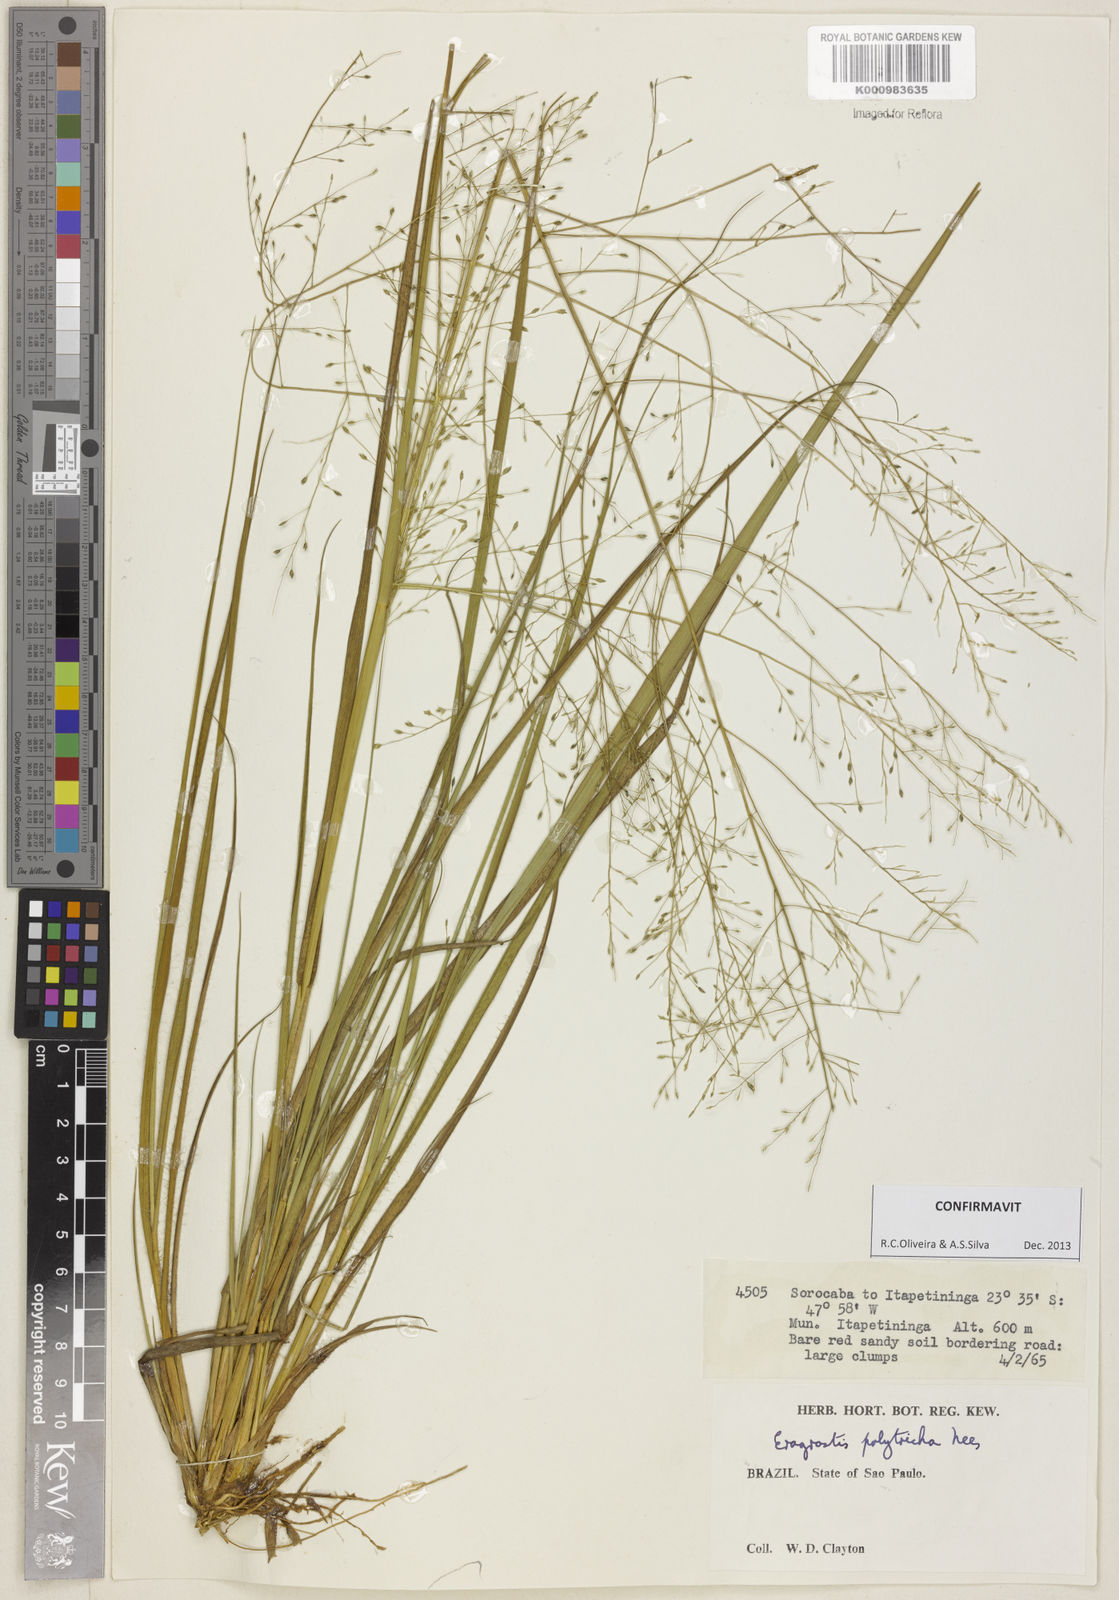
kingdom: Plantae
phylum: Tracheophyta
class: Liliopsida
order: Poales
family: Poaceae
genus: Eragrostis
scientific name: Eragrostis polytricha
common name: Hairy-sheath love grass
